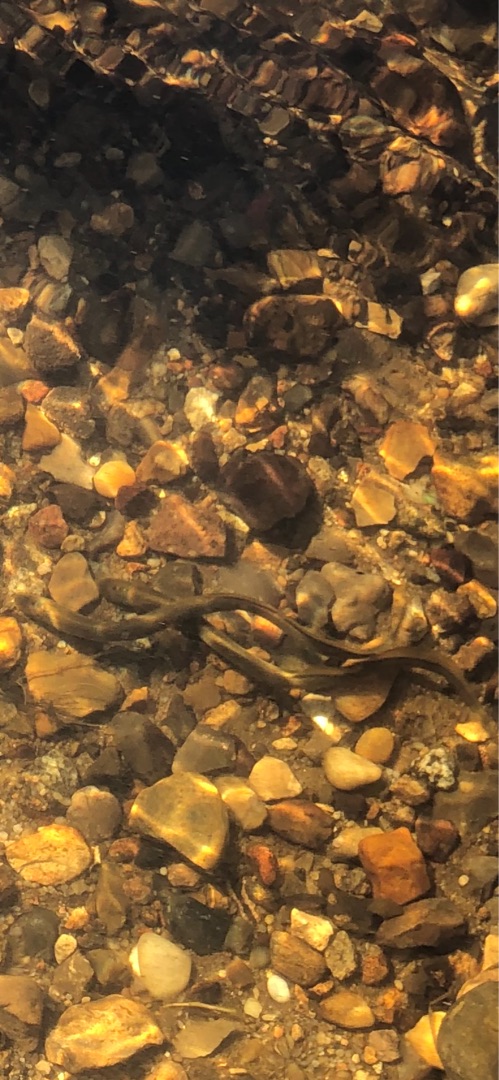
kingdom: Animalia
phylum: Chordata
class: Petromyzonti
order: Petromyzontiformes
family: Petromyzontidae
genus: Lampetra
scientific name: Lampetra planeri
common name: Bæklampret
